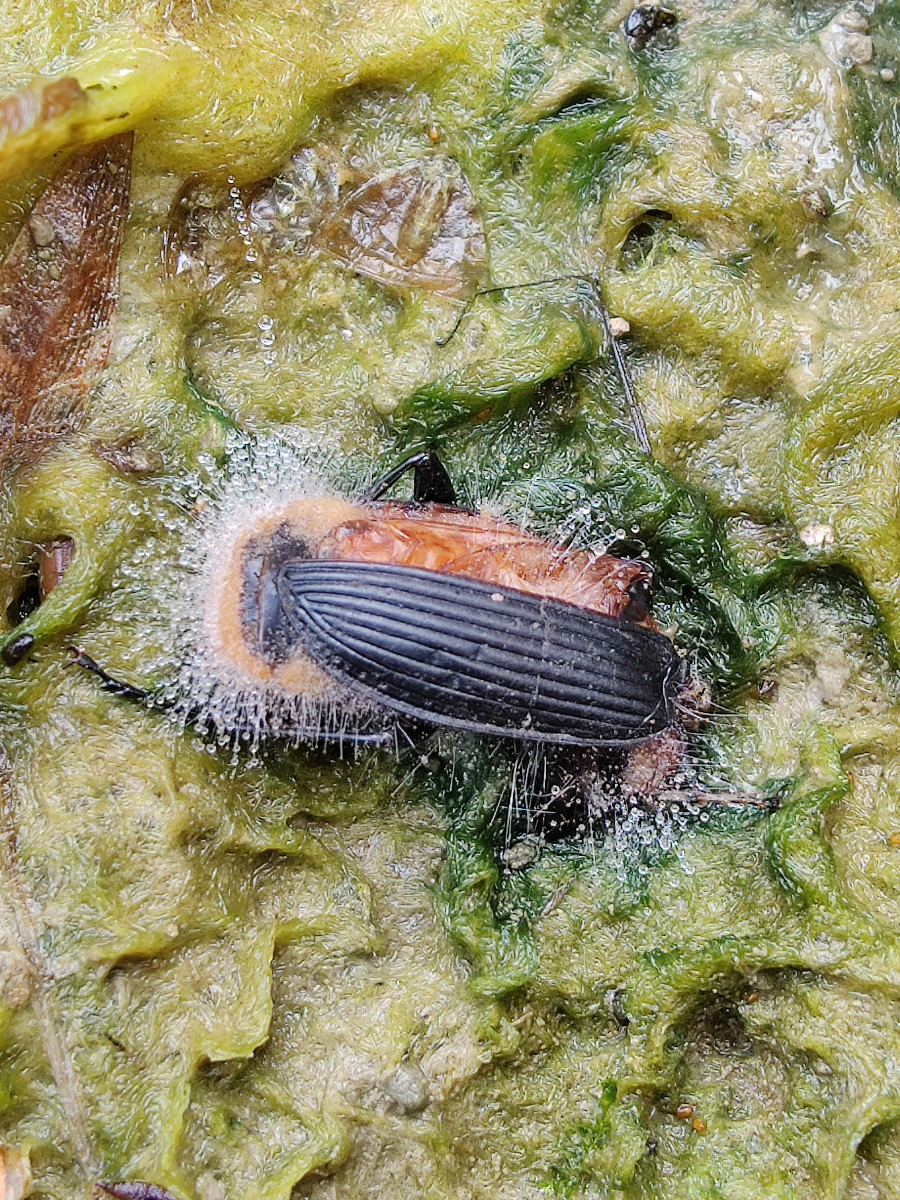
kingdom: Fungi
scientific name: Fungi
